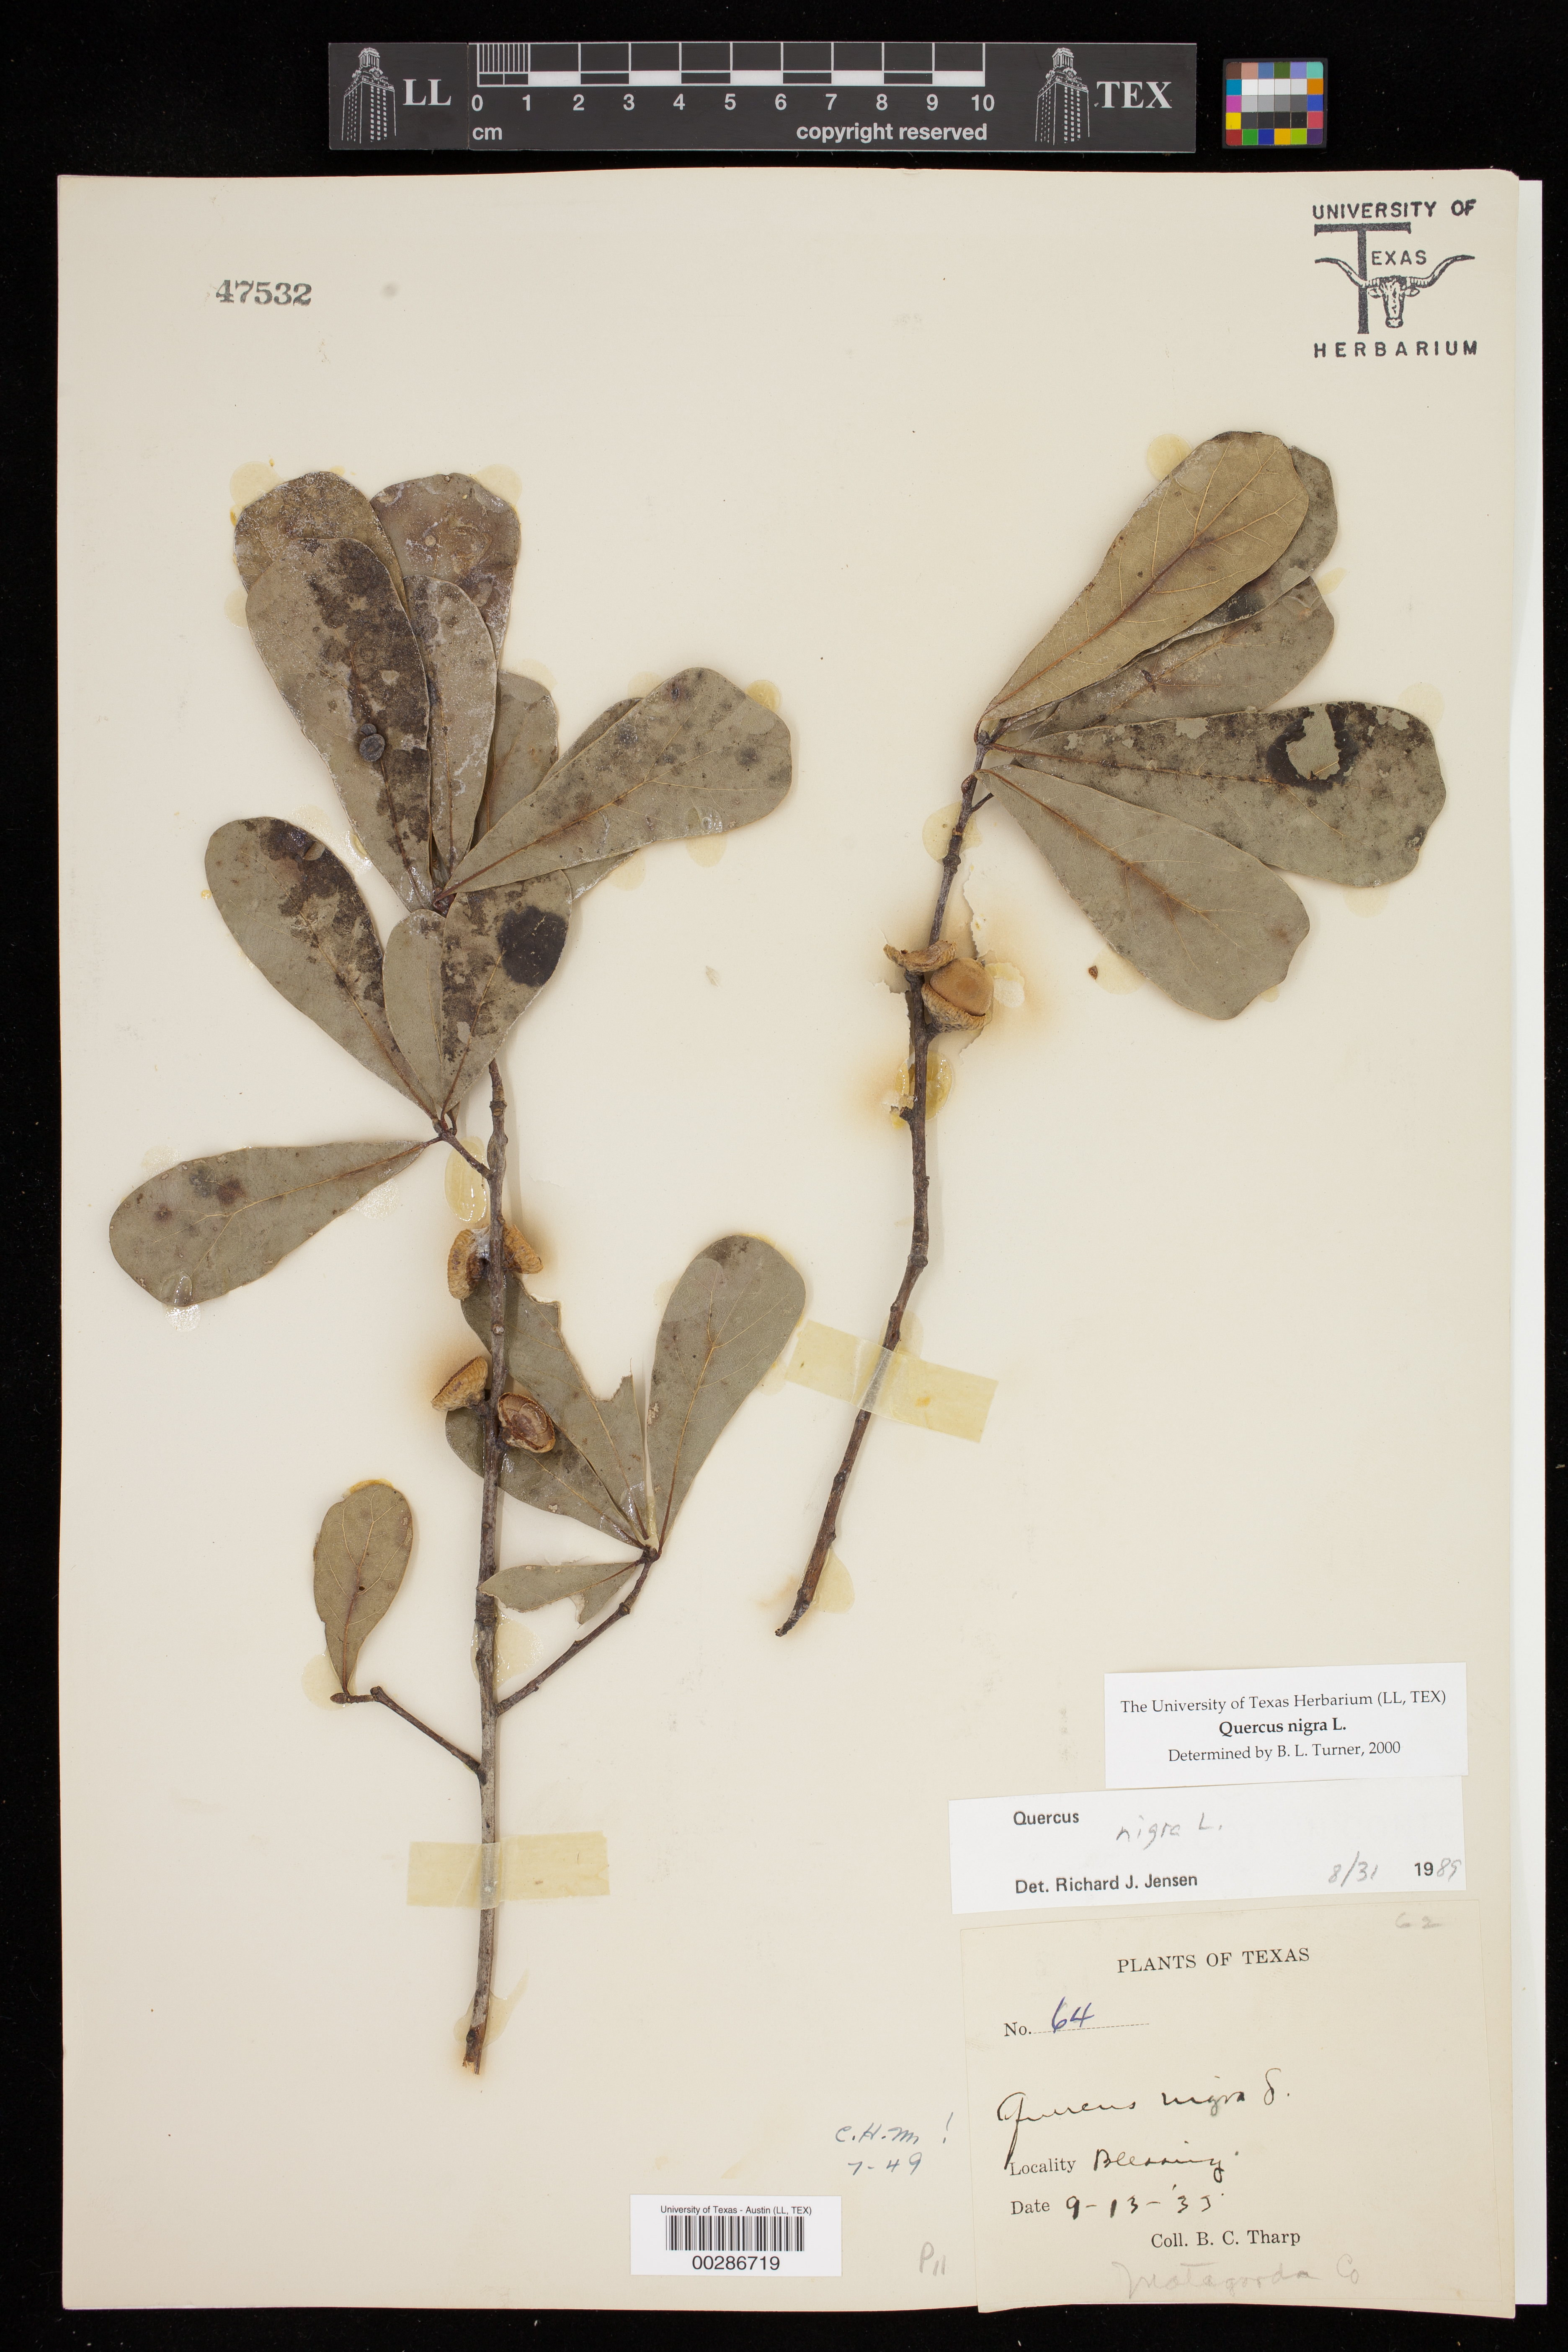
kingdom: Plantae
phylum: Tracheophyta
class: Magnoliopsida
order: Fagales
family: Fagaceae
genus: Quercus
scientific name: Quercus nigra
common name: Water oak
